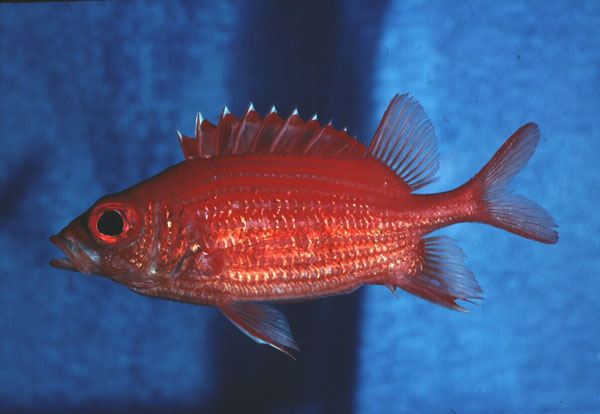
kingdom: Animalia
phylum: Chordata
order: Beryciformes
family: Holocentridae
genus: Sargocentron
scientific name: Sargocentron tiereoides
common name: Pink squirrelfish
